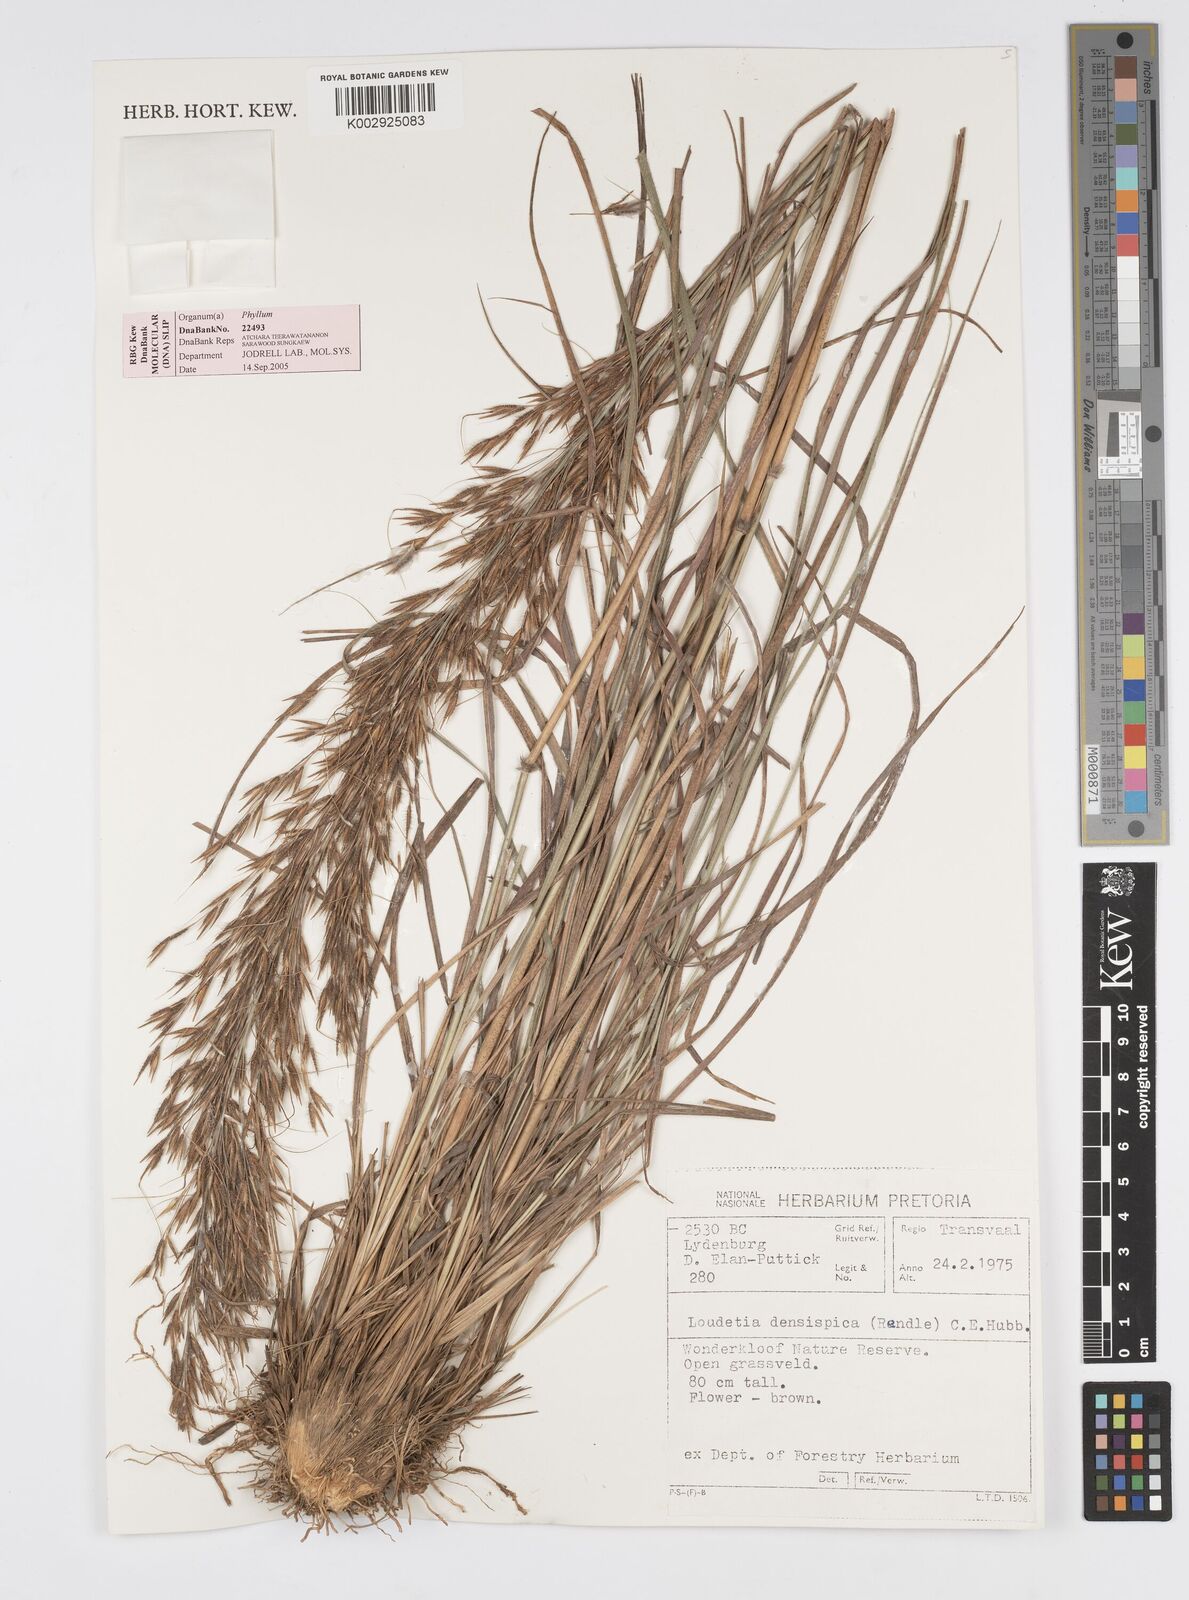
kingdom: Plantae
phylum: Tracheophyta
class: Liliopsida
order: Poales
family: Poaceae
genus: Loudetia
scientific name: Loudetia
